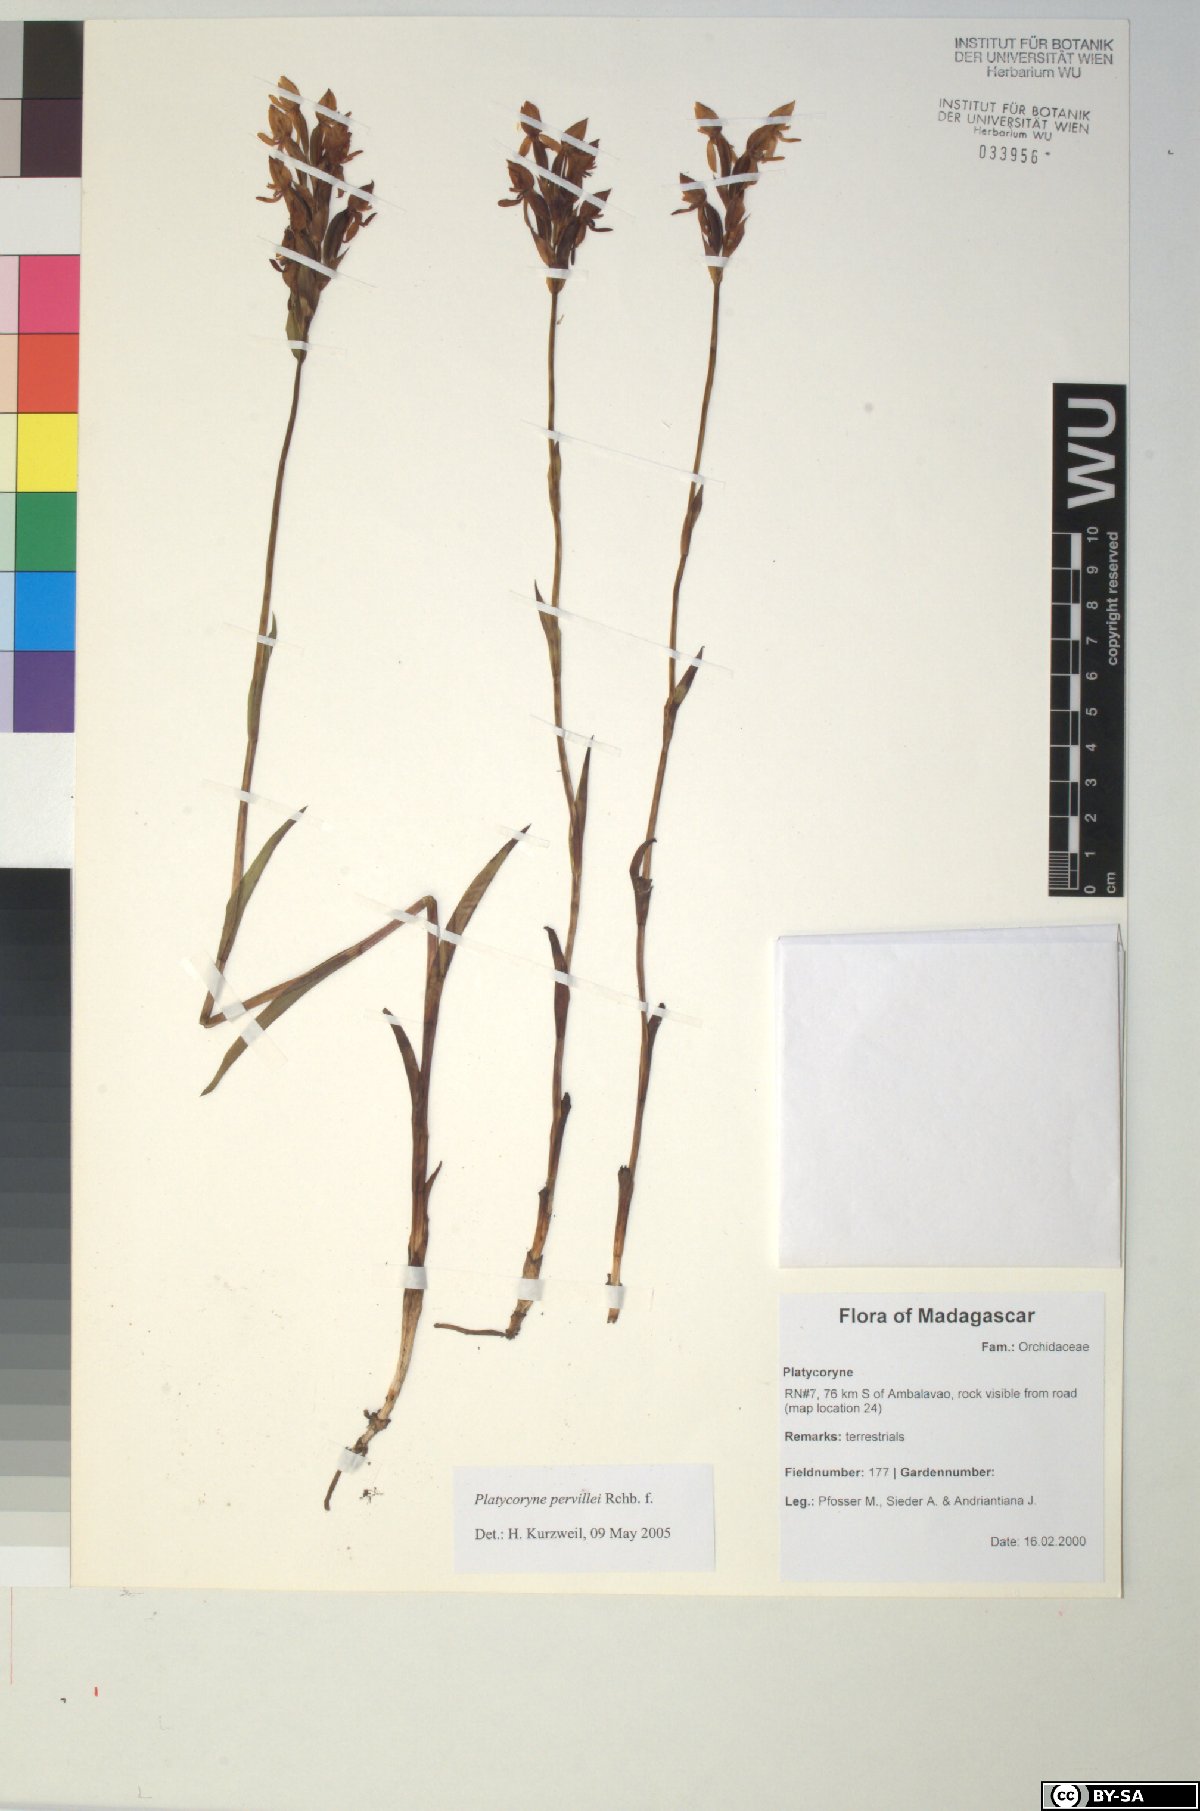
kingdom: Plantae
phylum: Tracheophyta
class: Liliopsida
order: Asparagales
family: Orchidaceae
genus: Platycoryne
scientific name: Platycoryne pervillei
